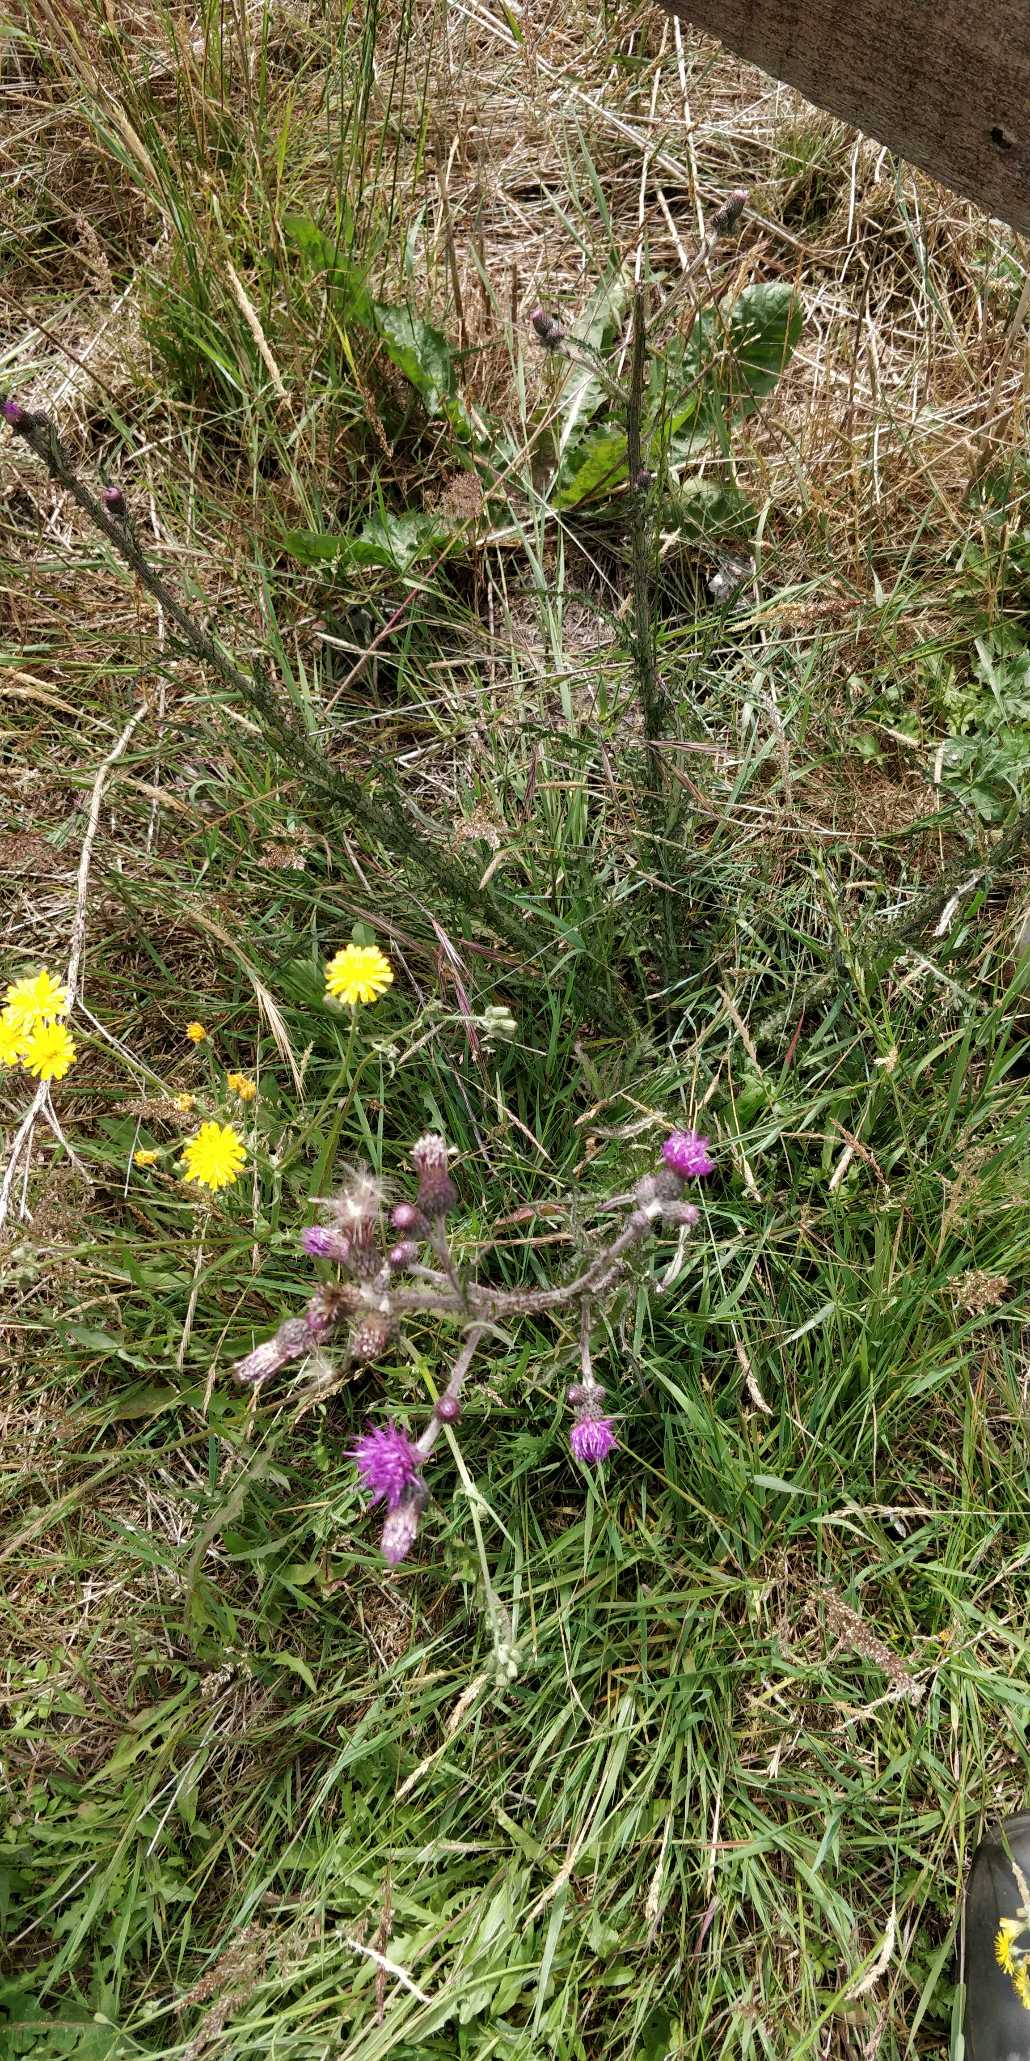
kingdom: Plantae
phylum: Tracheophyta
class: Magnoliopsida
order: Asterales
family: Asteraceae
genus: Cirsium
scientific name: Cirsium palustre
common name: Kær-tidsel
